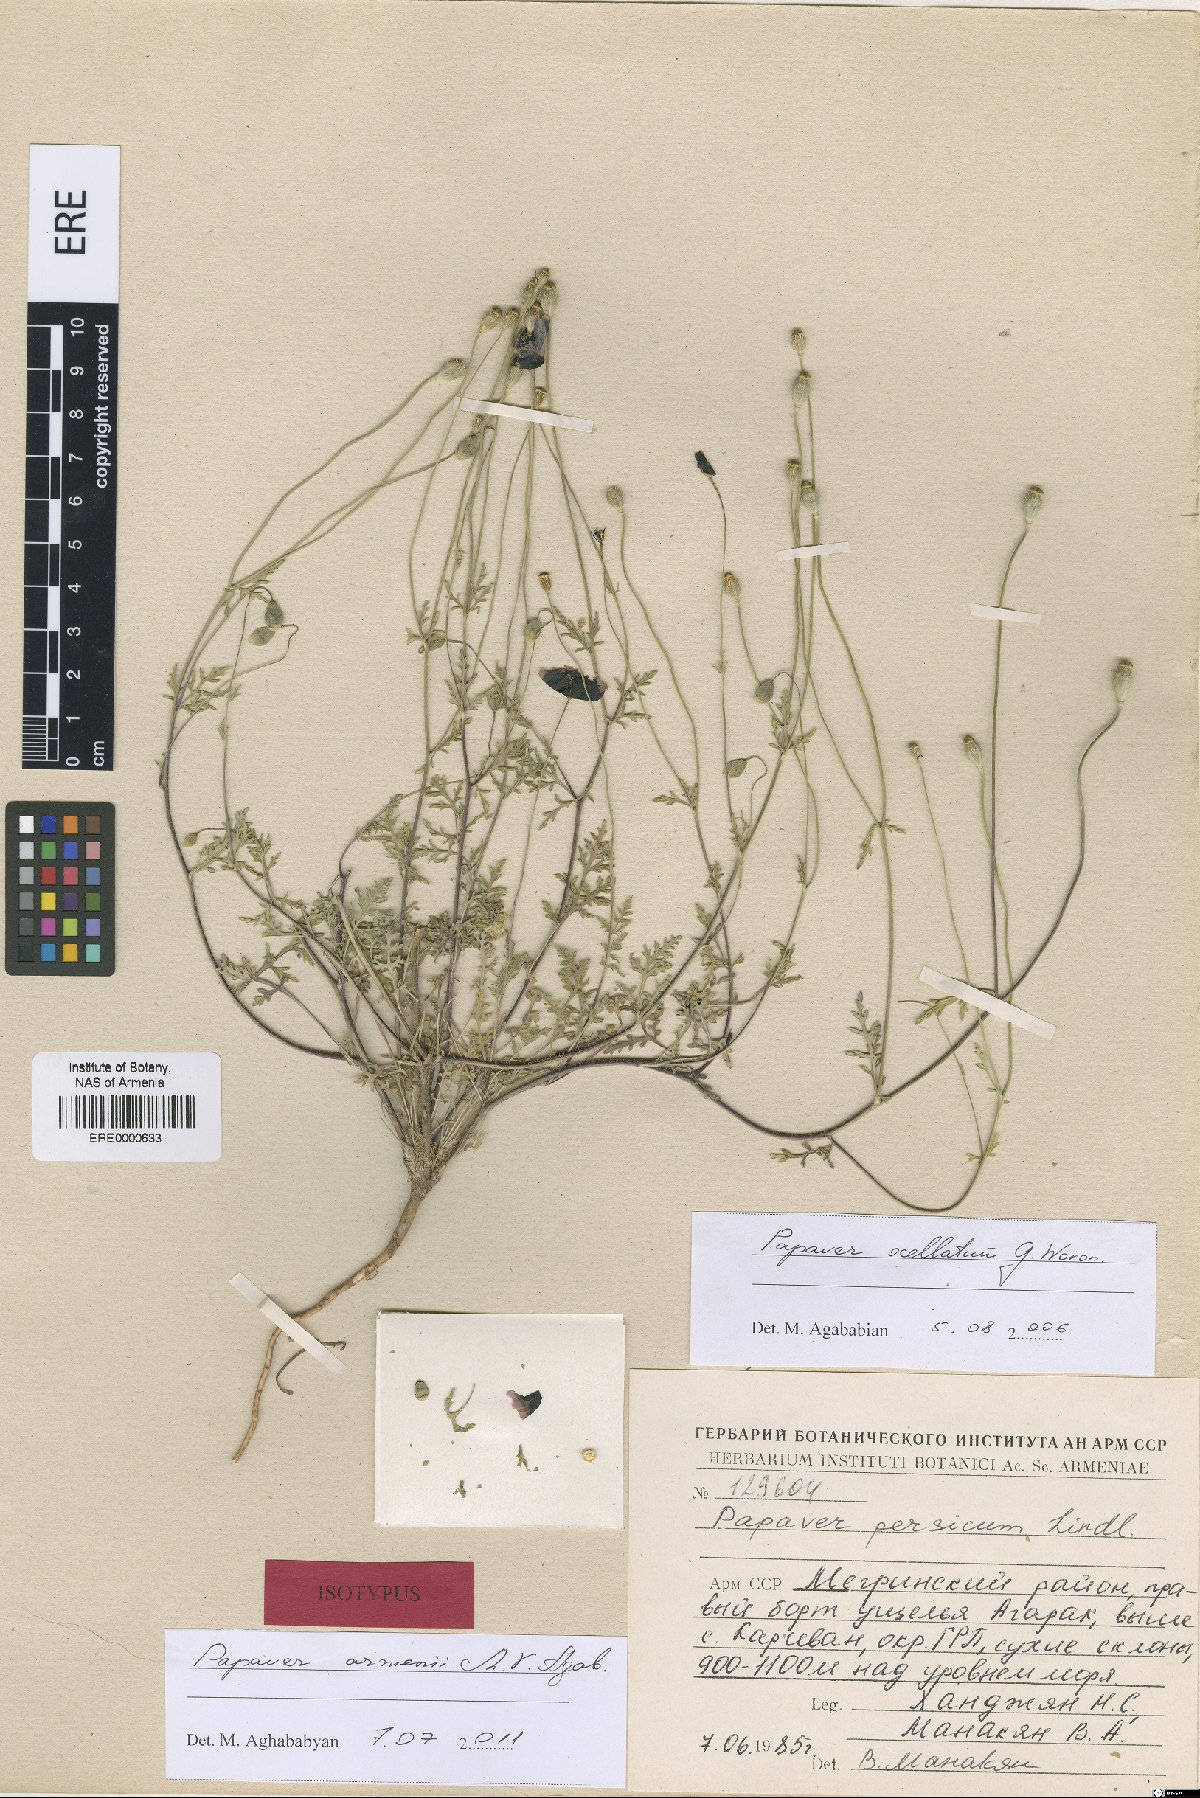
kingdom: Plantae
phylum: Tracheophyta
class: Magnoliopsida
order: Ranunculales
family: Papaveraceae
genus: Roemeria
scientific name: Roemeria armenii
